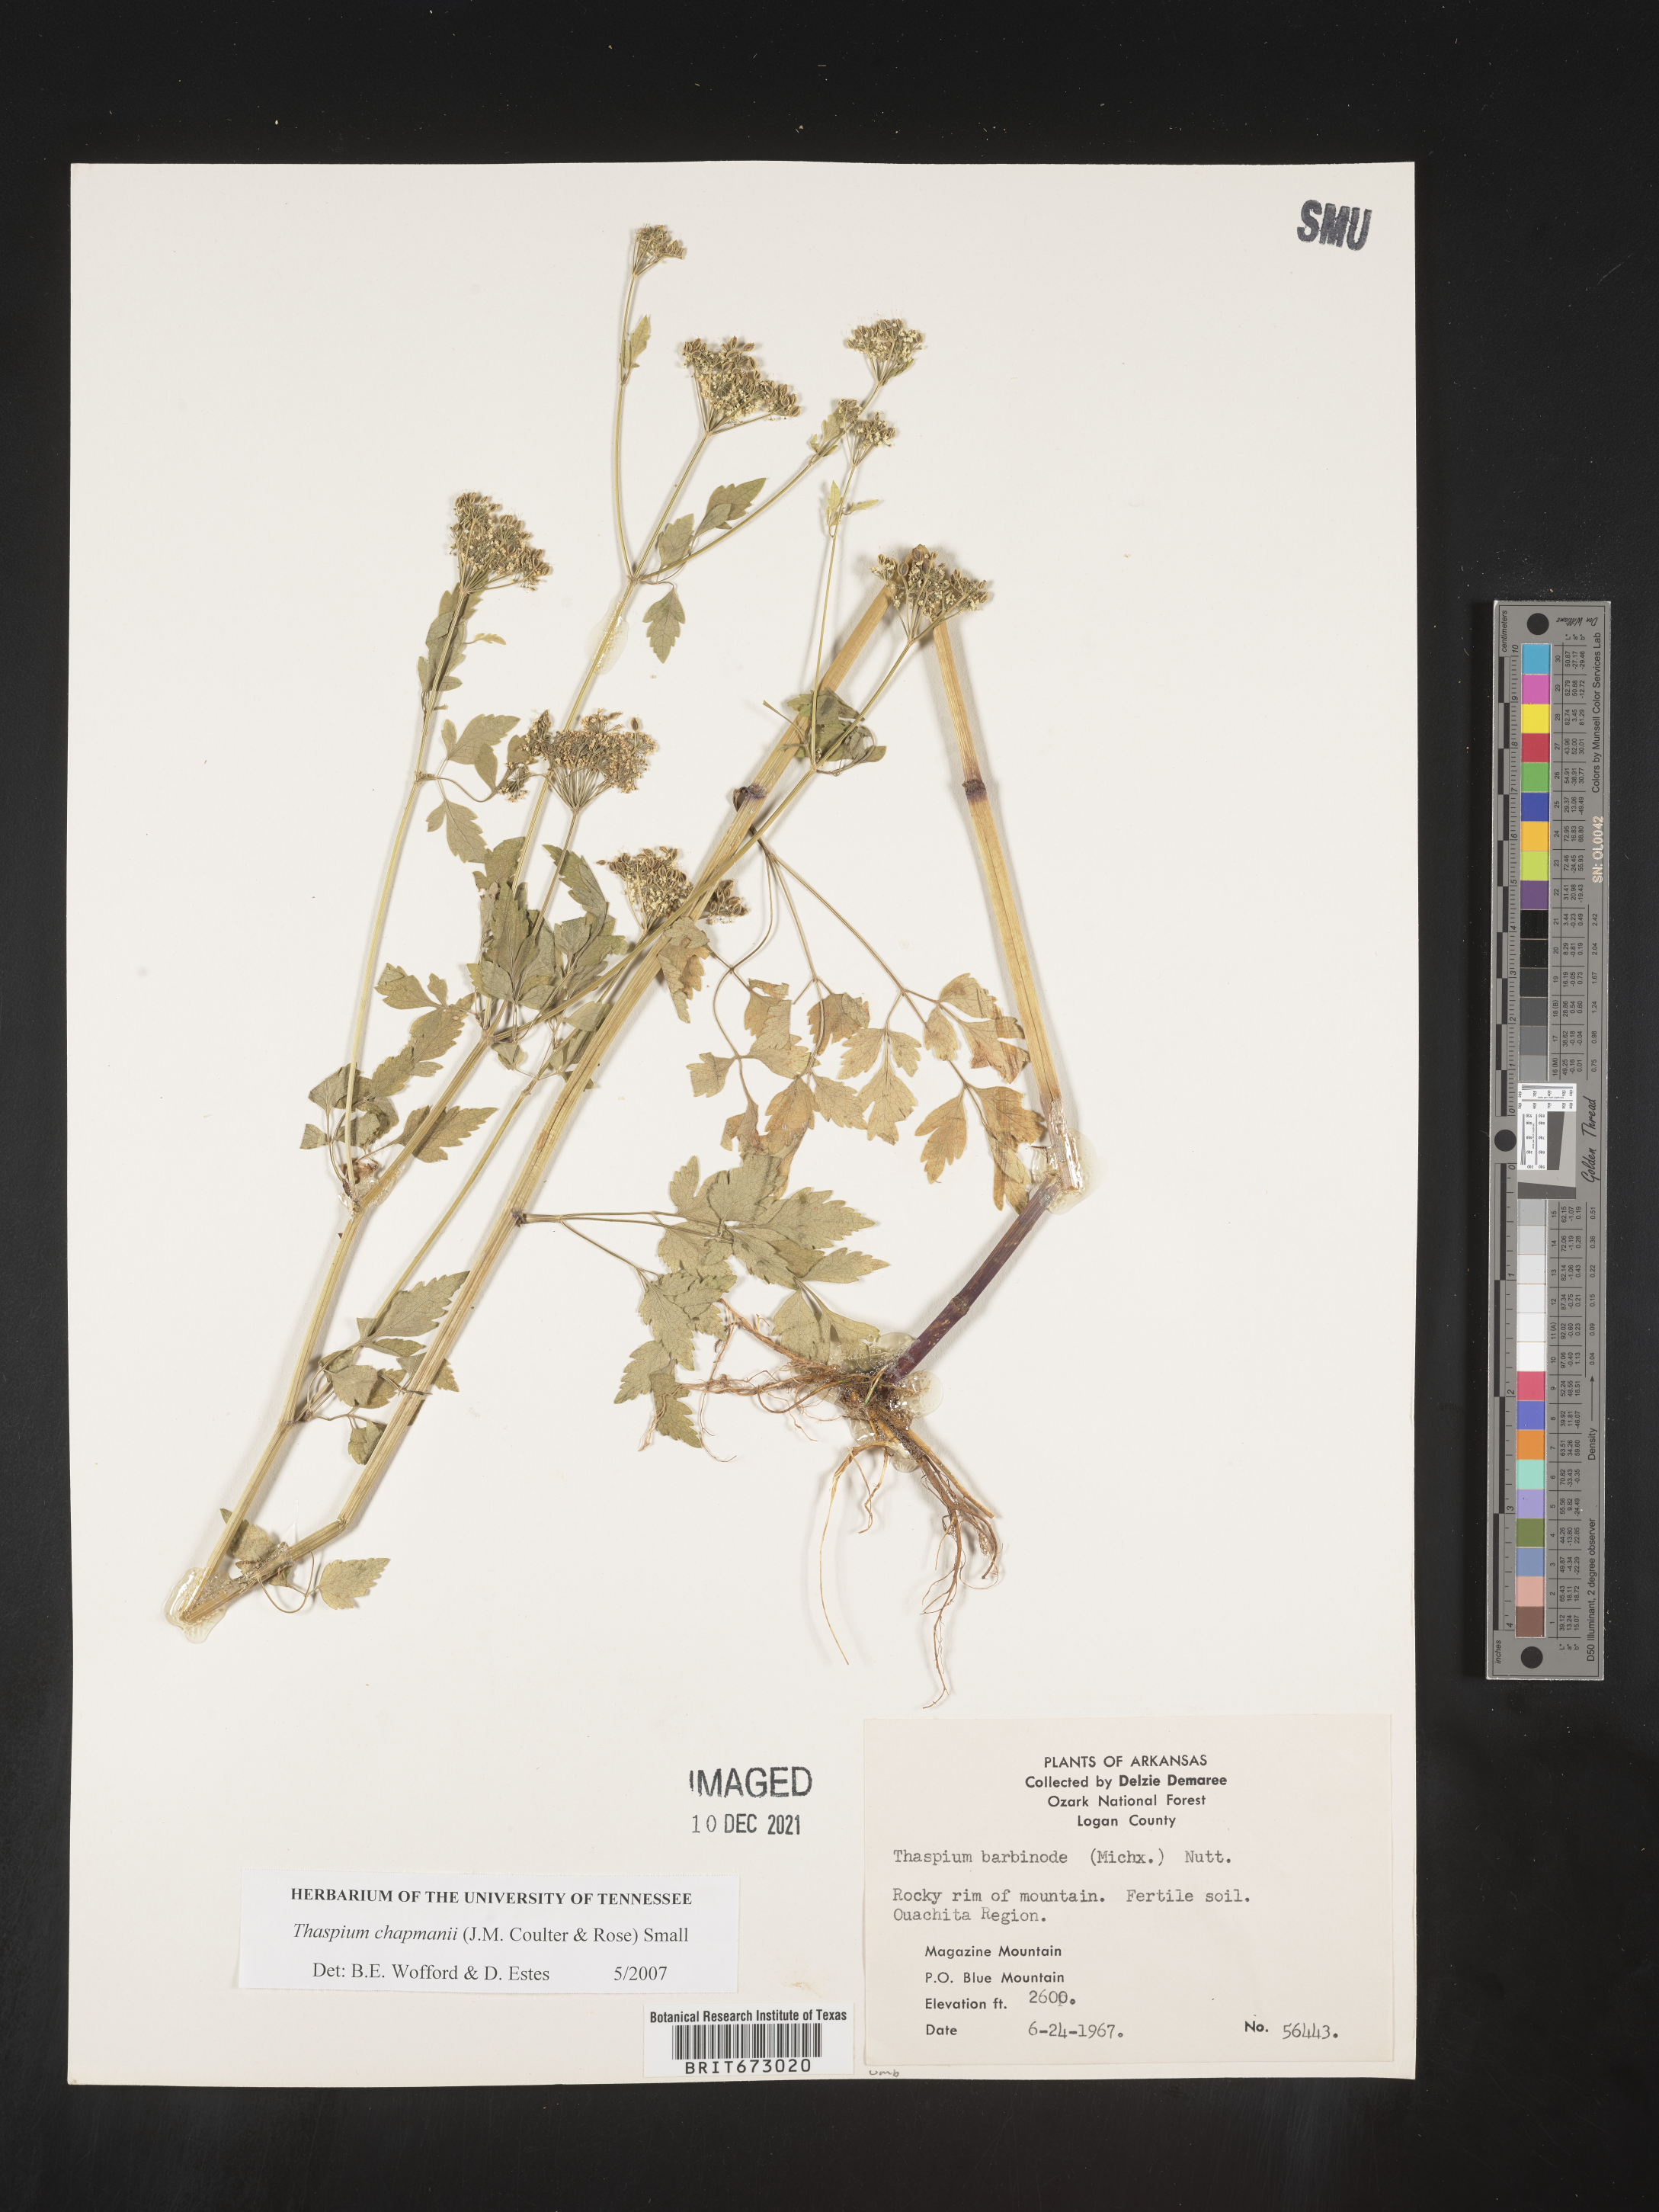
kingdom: Plantae
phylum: Tracheophyta
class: Magnoliopsida
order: Apiales
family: Apiaceae
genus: Thaspium
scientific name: Thaspium barbinode
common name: Bearded meadow-parsnip
